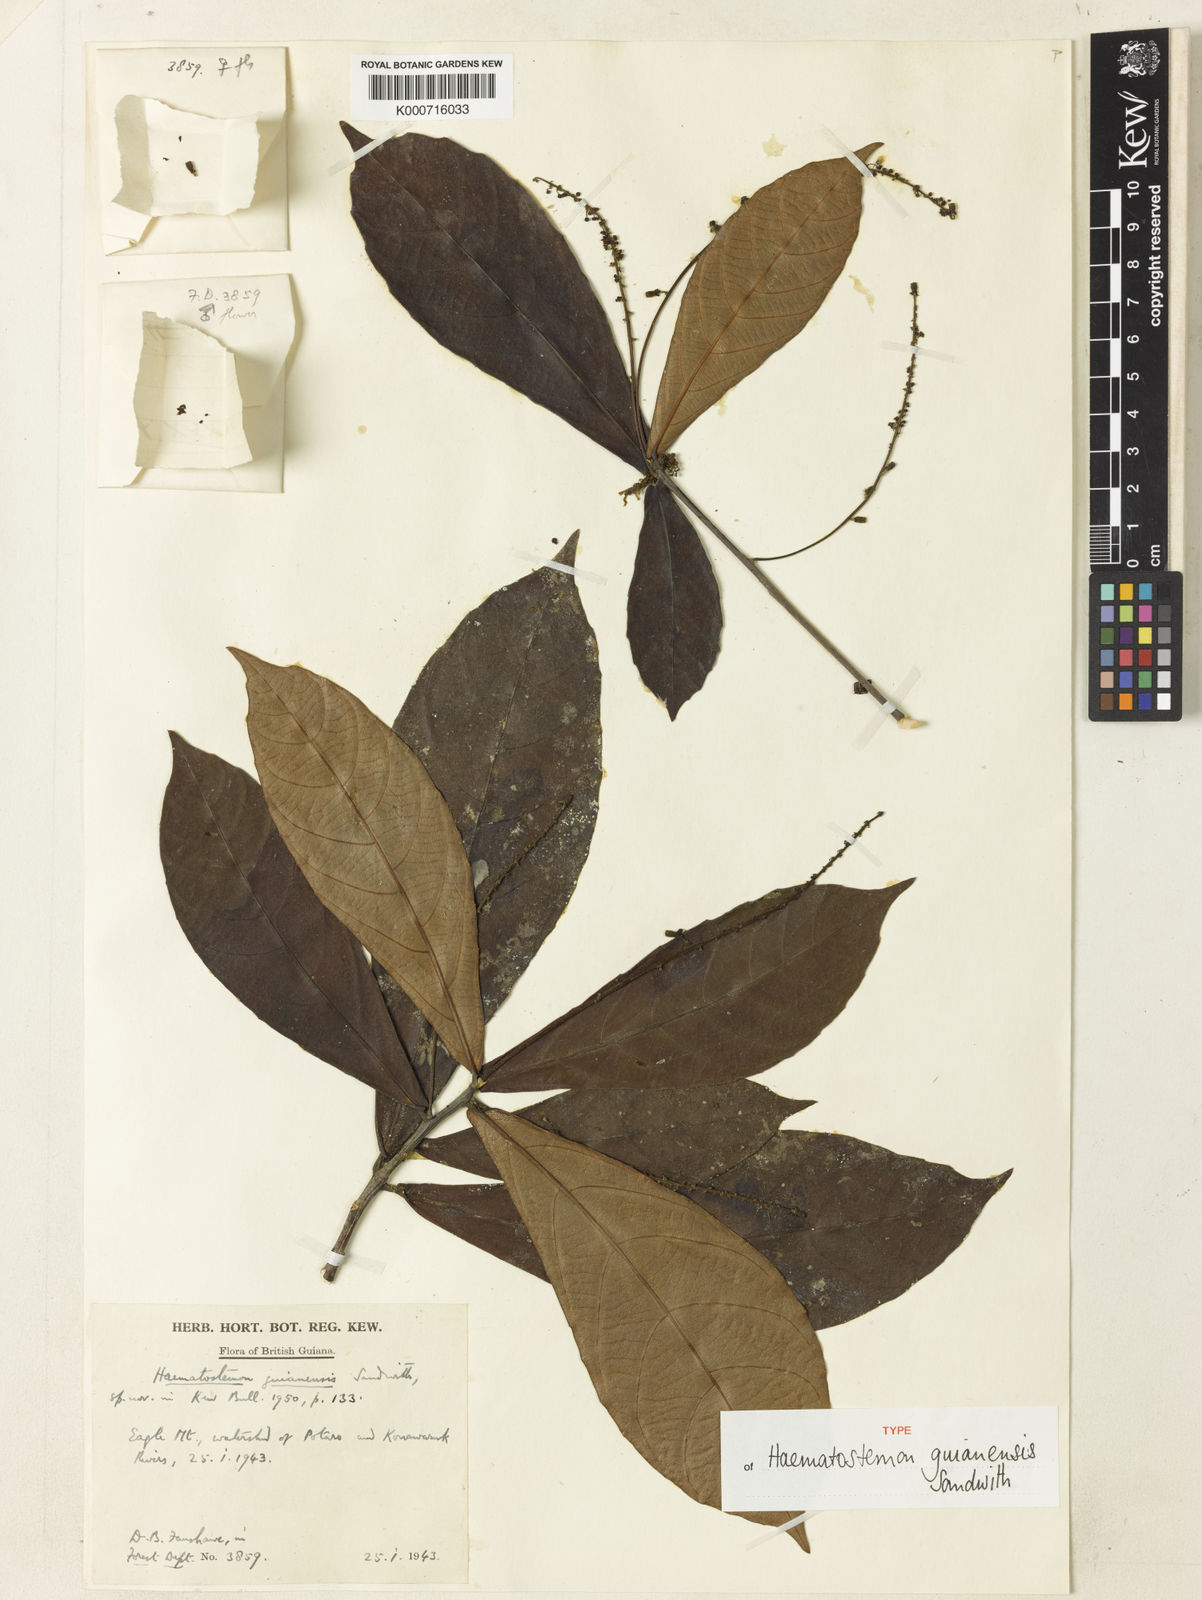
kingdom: Plantae
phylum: Tracheophyta
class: Magnoliopsida
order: Malpighiales
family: Euphorbiaceae
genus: Haematostemon
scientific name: Haematostemon guianensis
